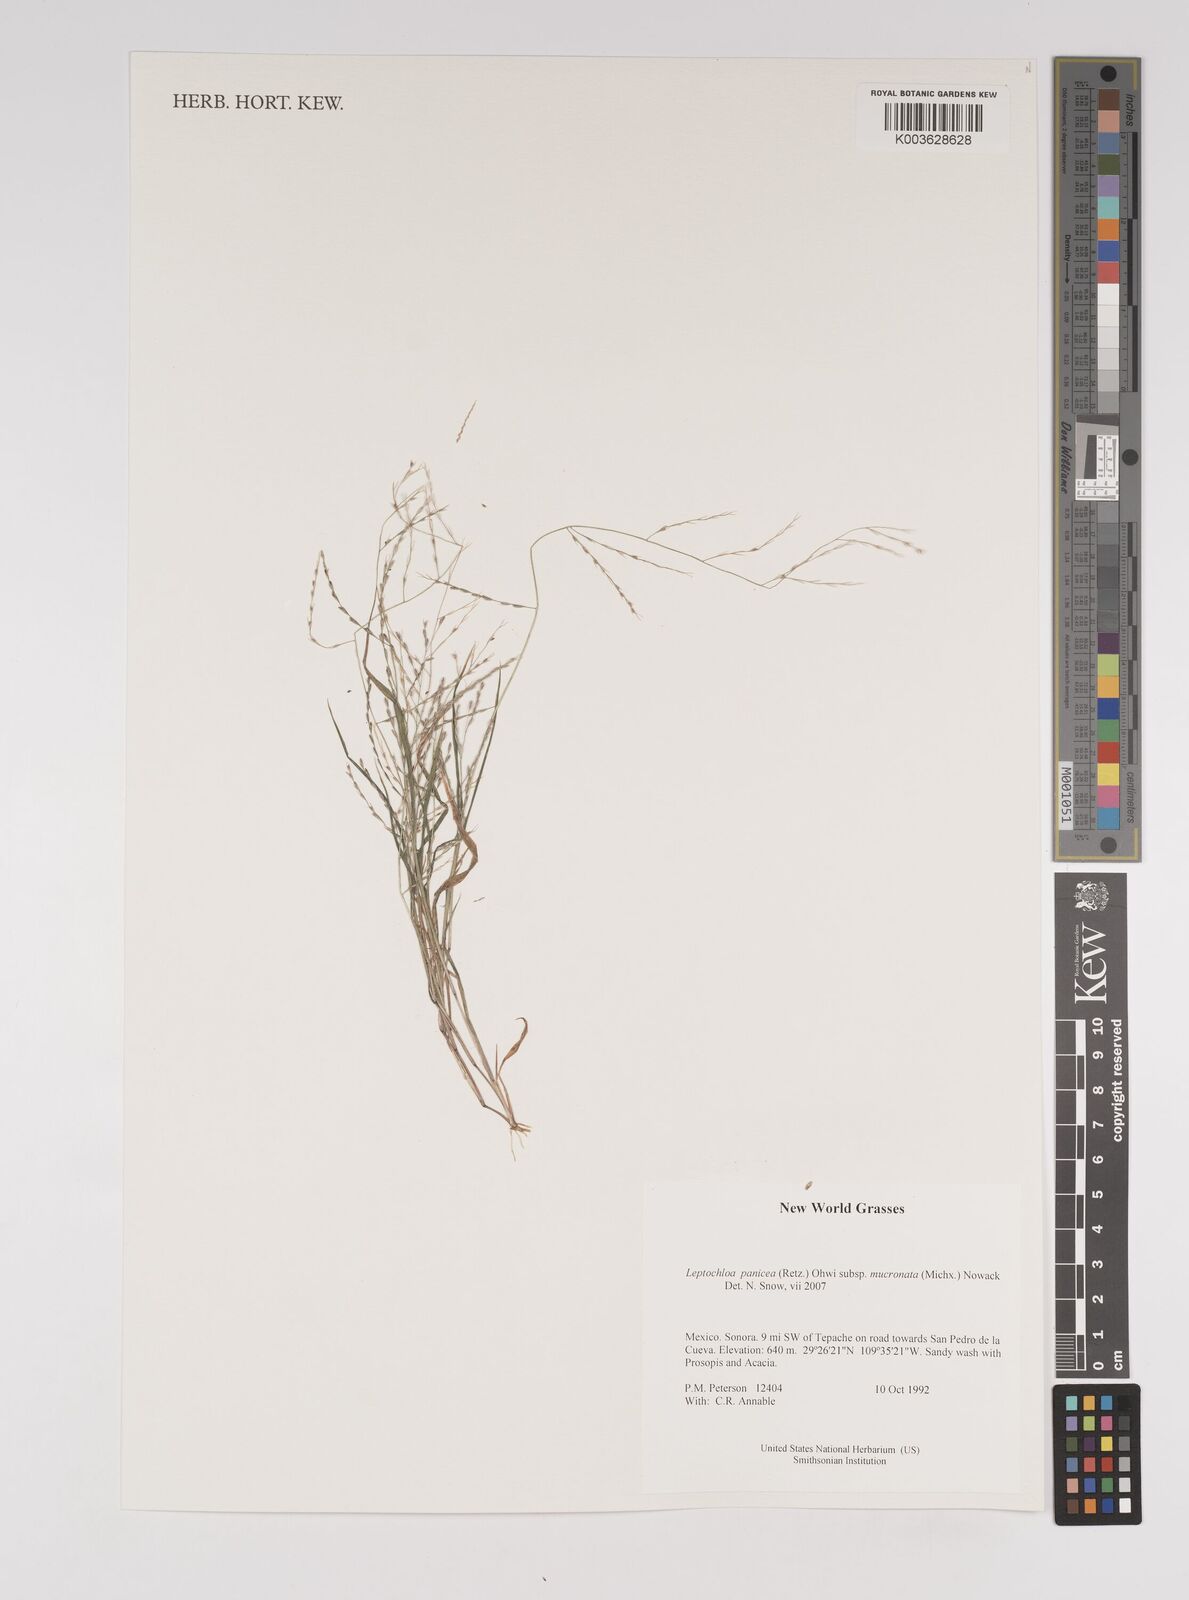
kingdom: Plantae
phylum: Tracheophyta
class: Liliopsida
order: Poales
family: Poaceae
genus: Leptochloa
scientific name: Leptochloa panicea
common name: Mucronate sprangletop
